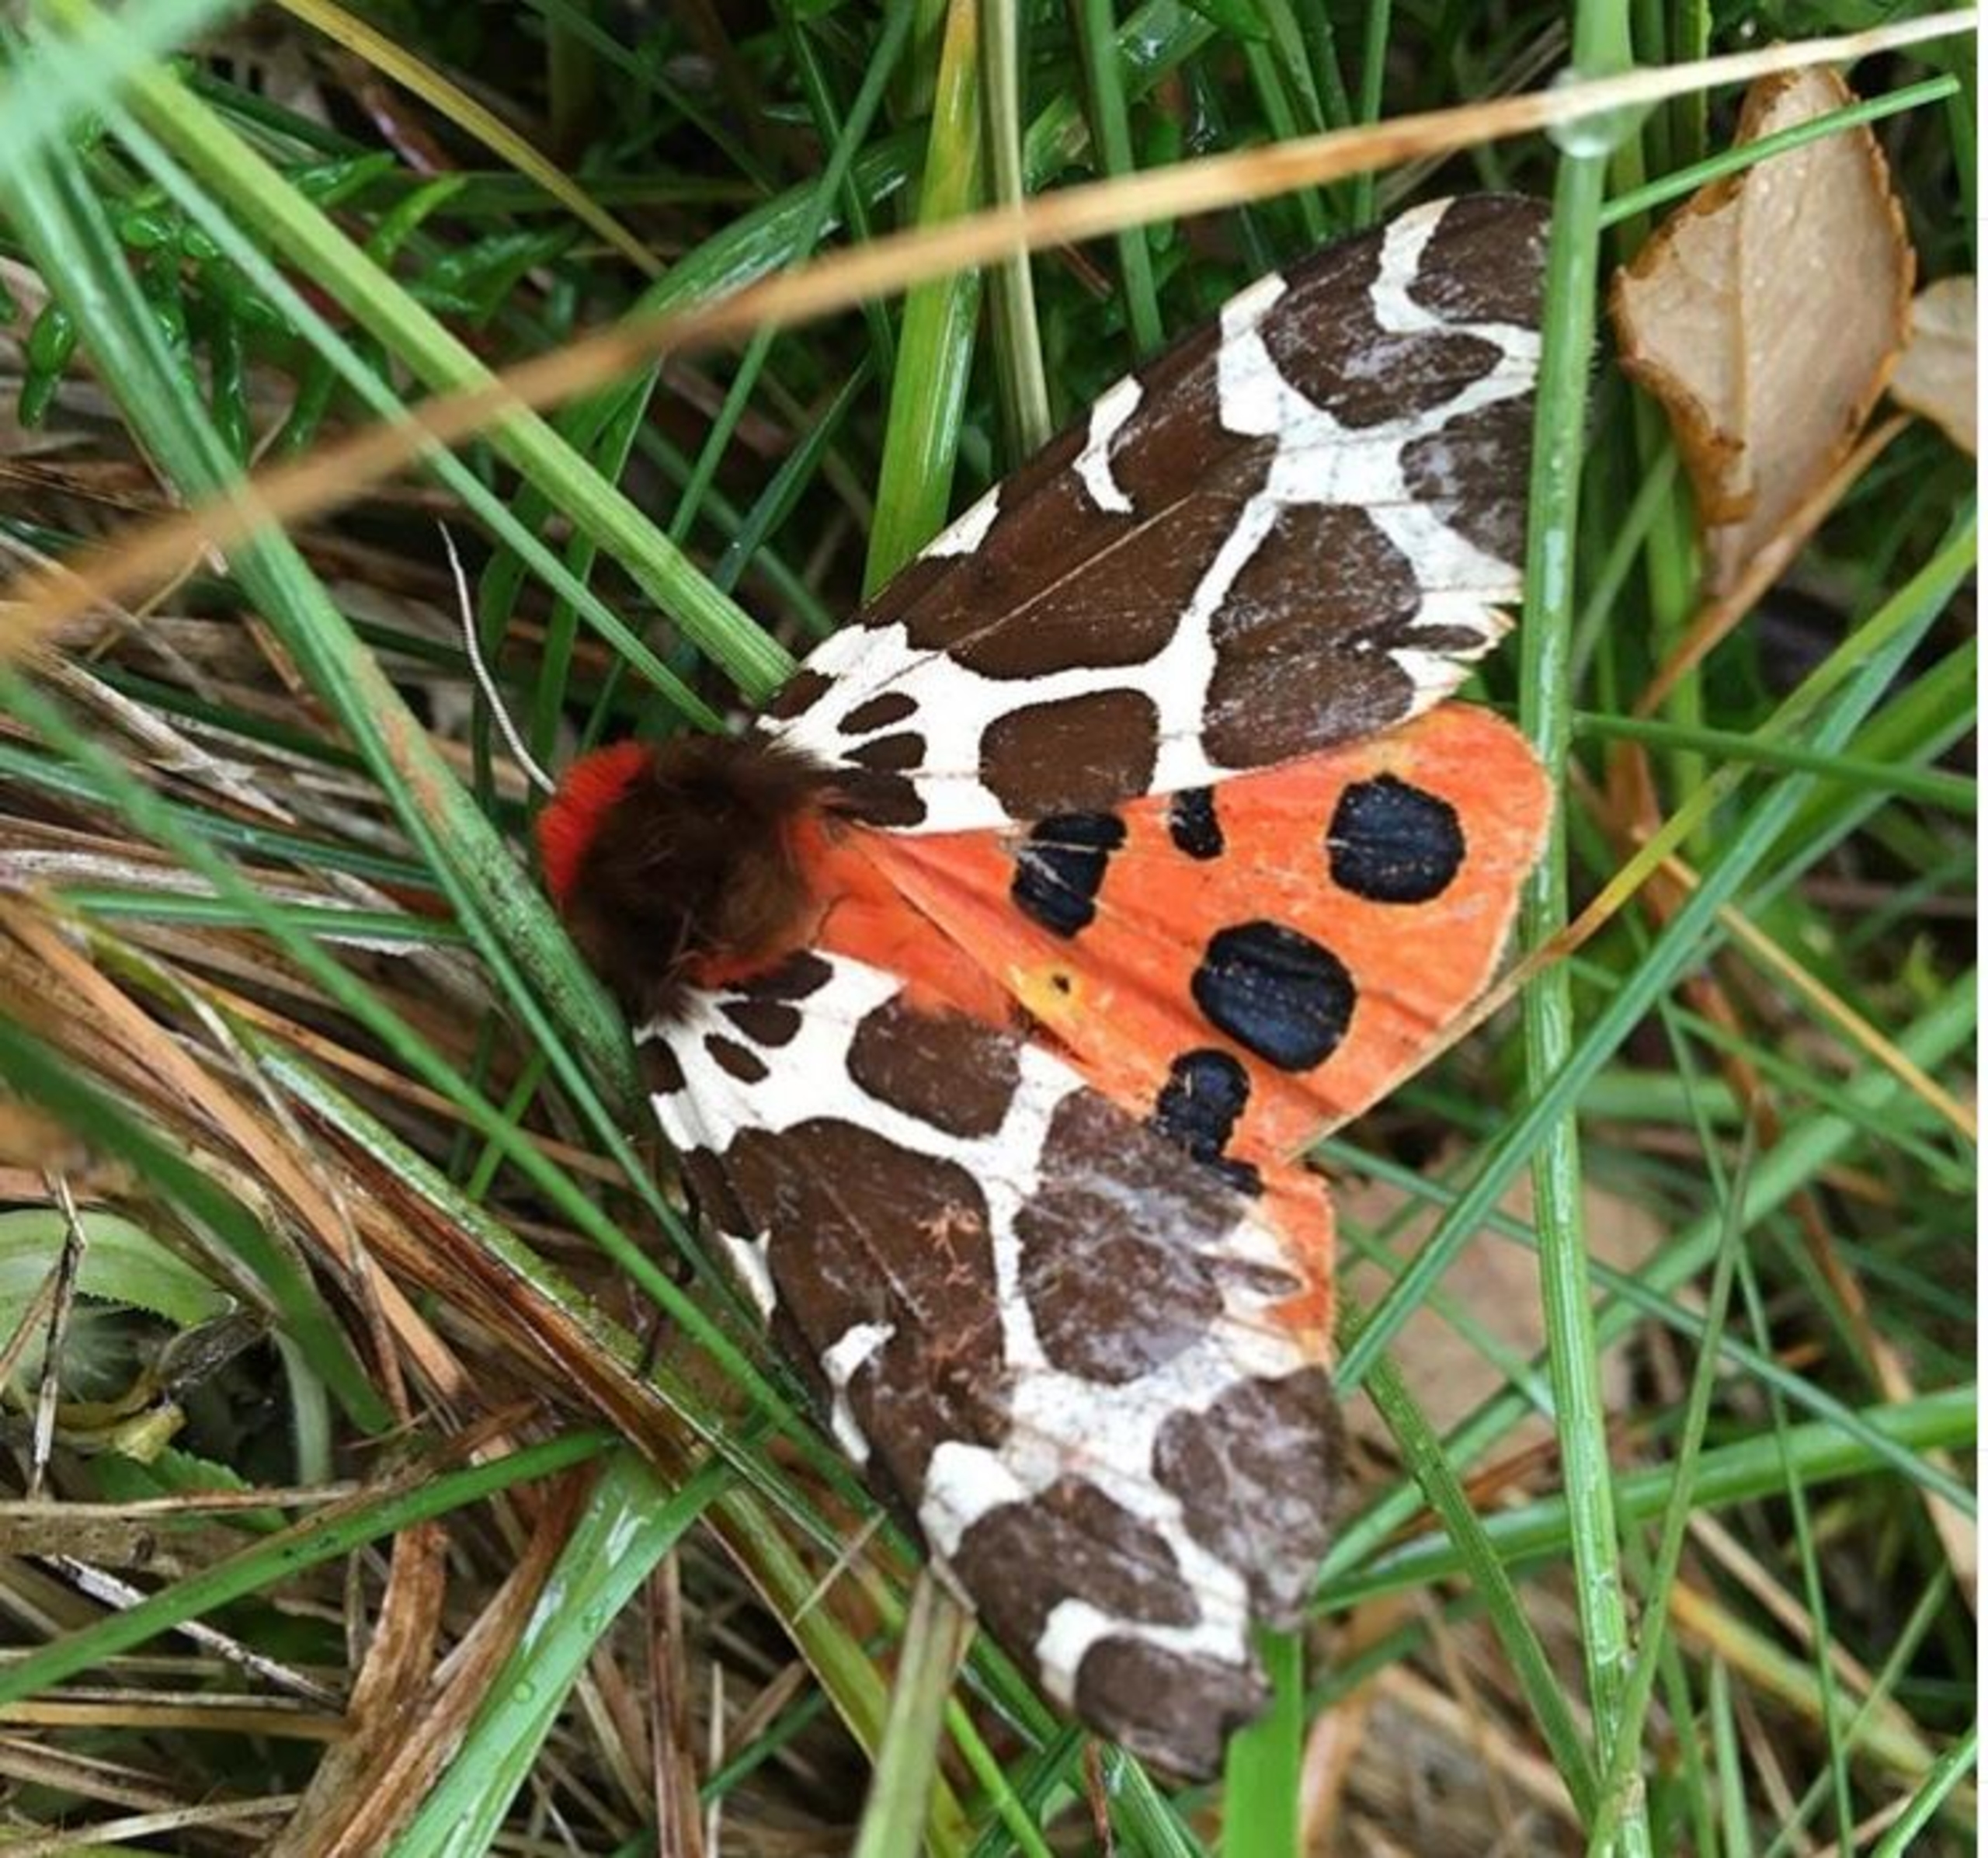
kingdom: Animalia
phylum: Arthropoda
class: Insecta
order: Lepidoptera
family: Erebidae
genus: Arctia
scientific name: Arctia caja
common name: Brun bjørn
